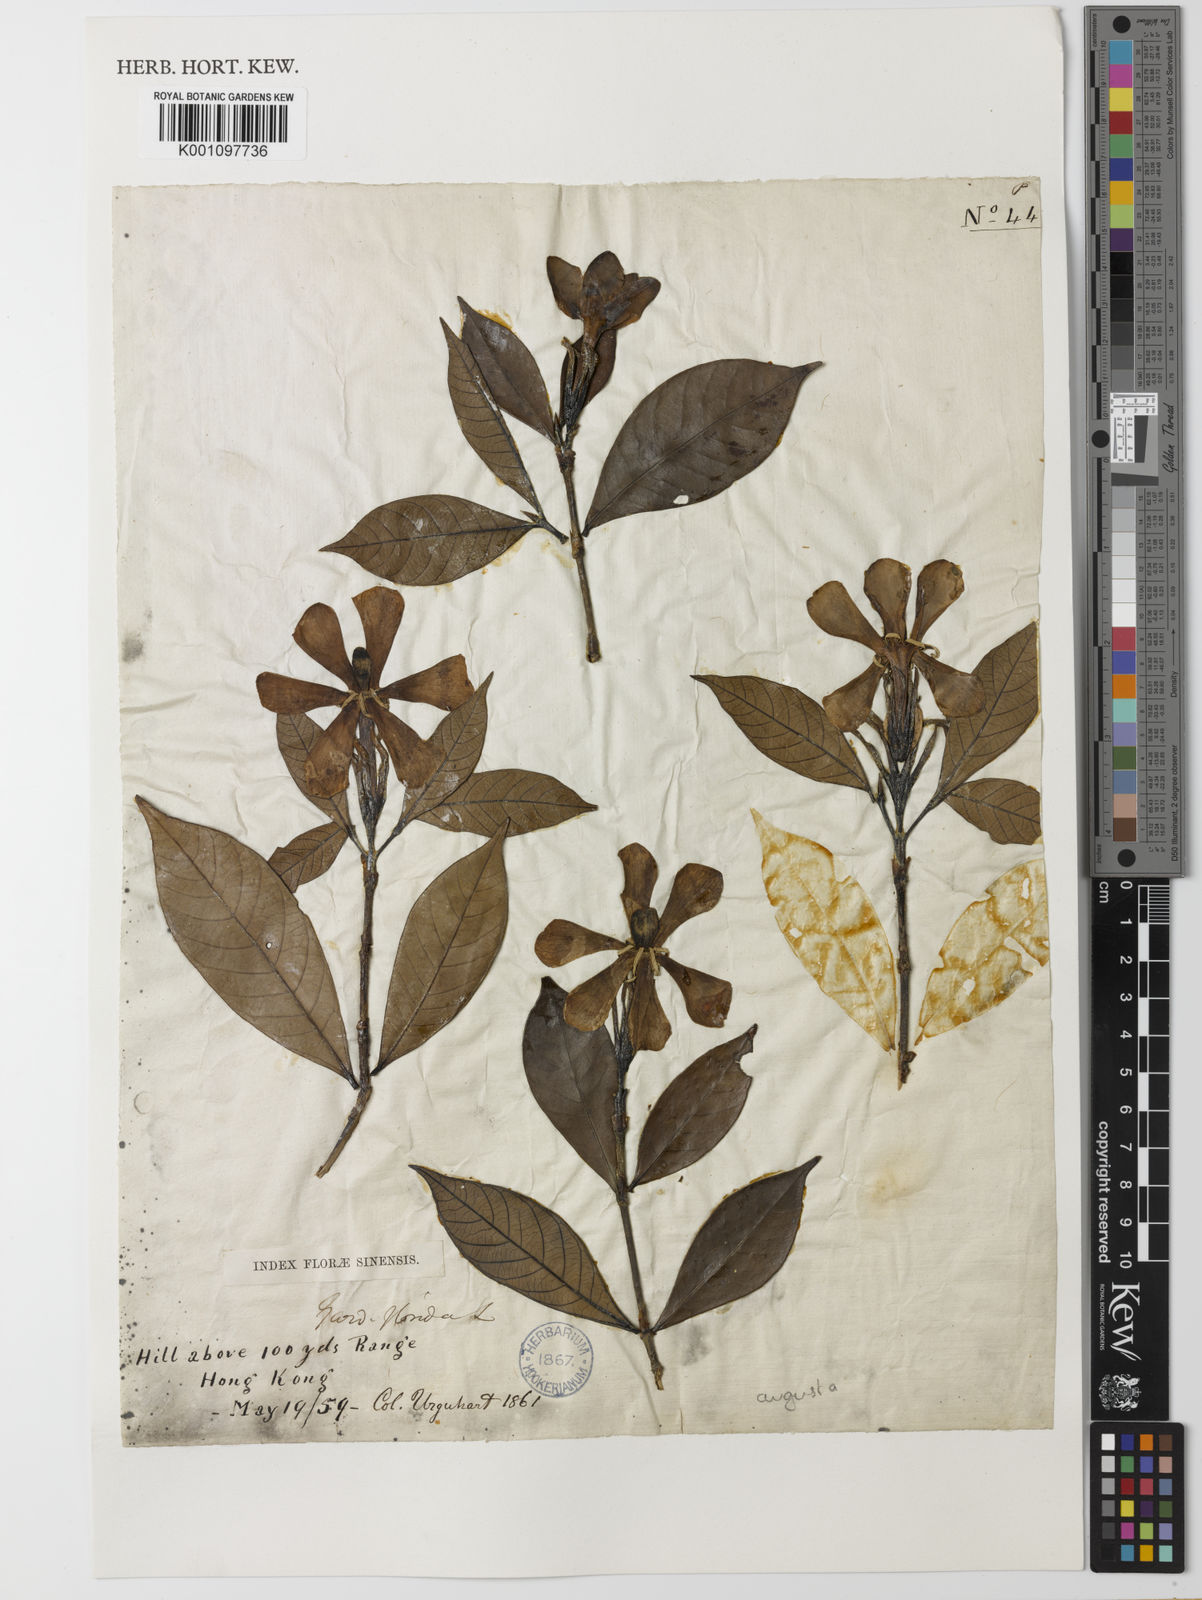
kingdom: Plantae
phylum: Tracheophyta
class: Magnoliopsida
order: Gentianales
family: Rubiaceae
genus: Gardenia
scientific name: Gardenia jasminoides
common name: Cape-jasmine
